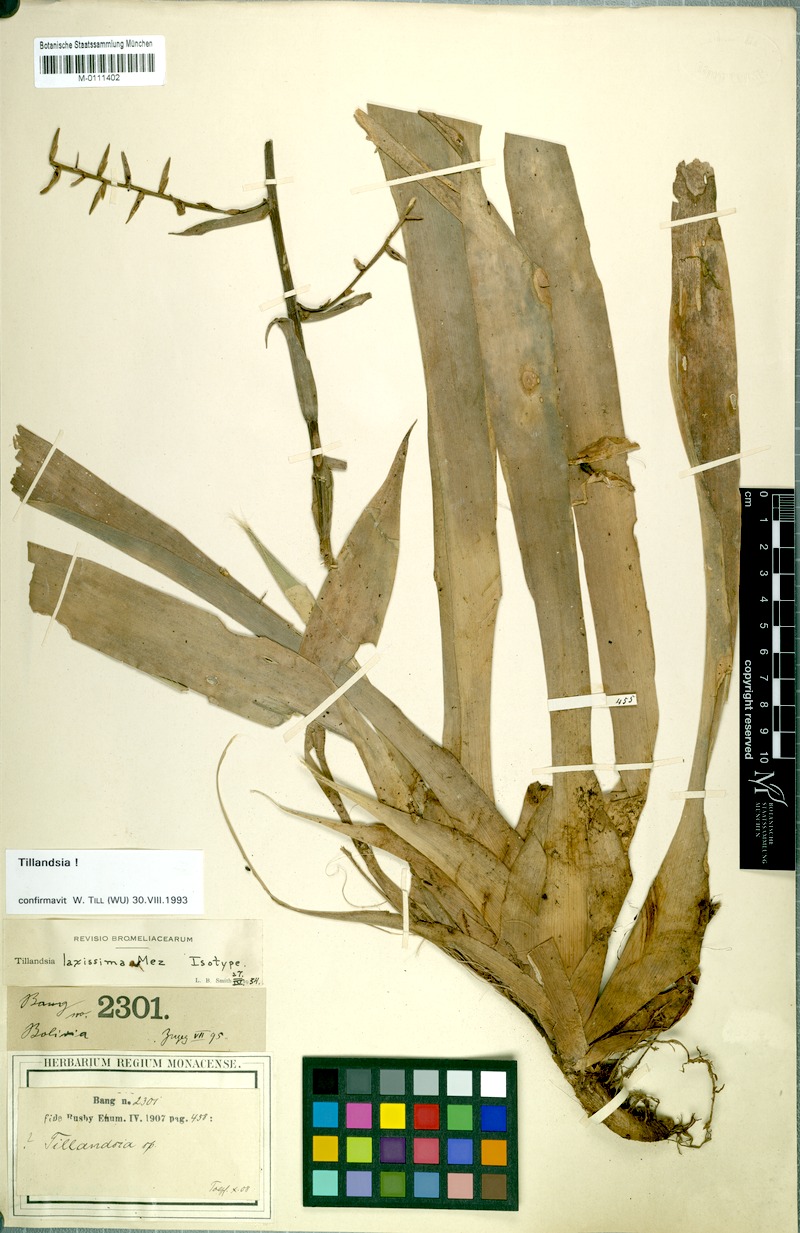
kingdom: Plantae
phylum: Tracheophyta
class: Liliopsida
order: Poales
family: Bromeliaceae
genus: Barfussia
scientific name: Barfussia laxissima
